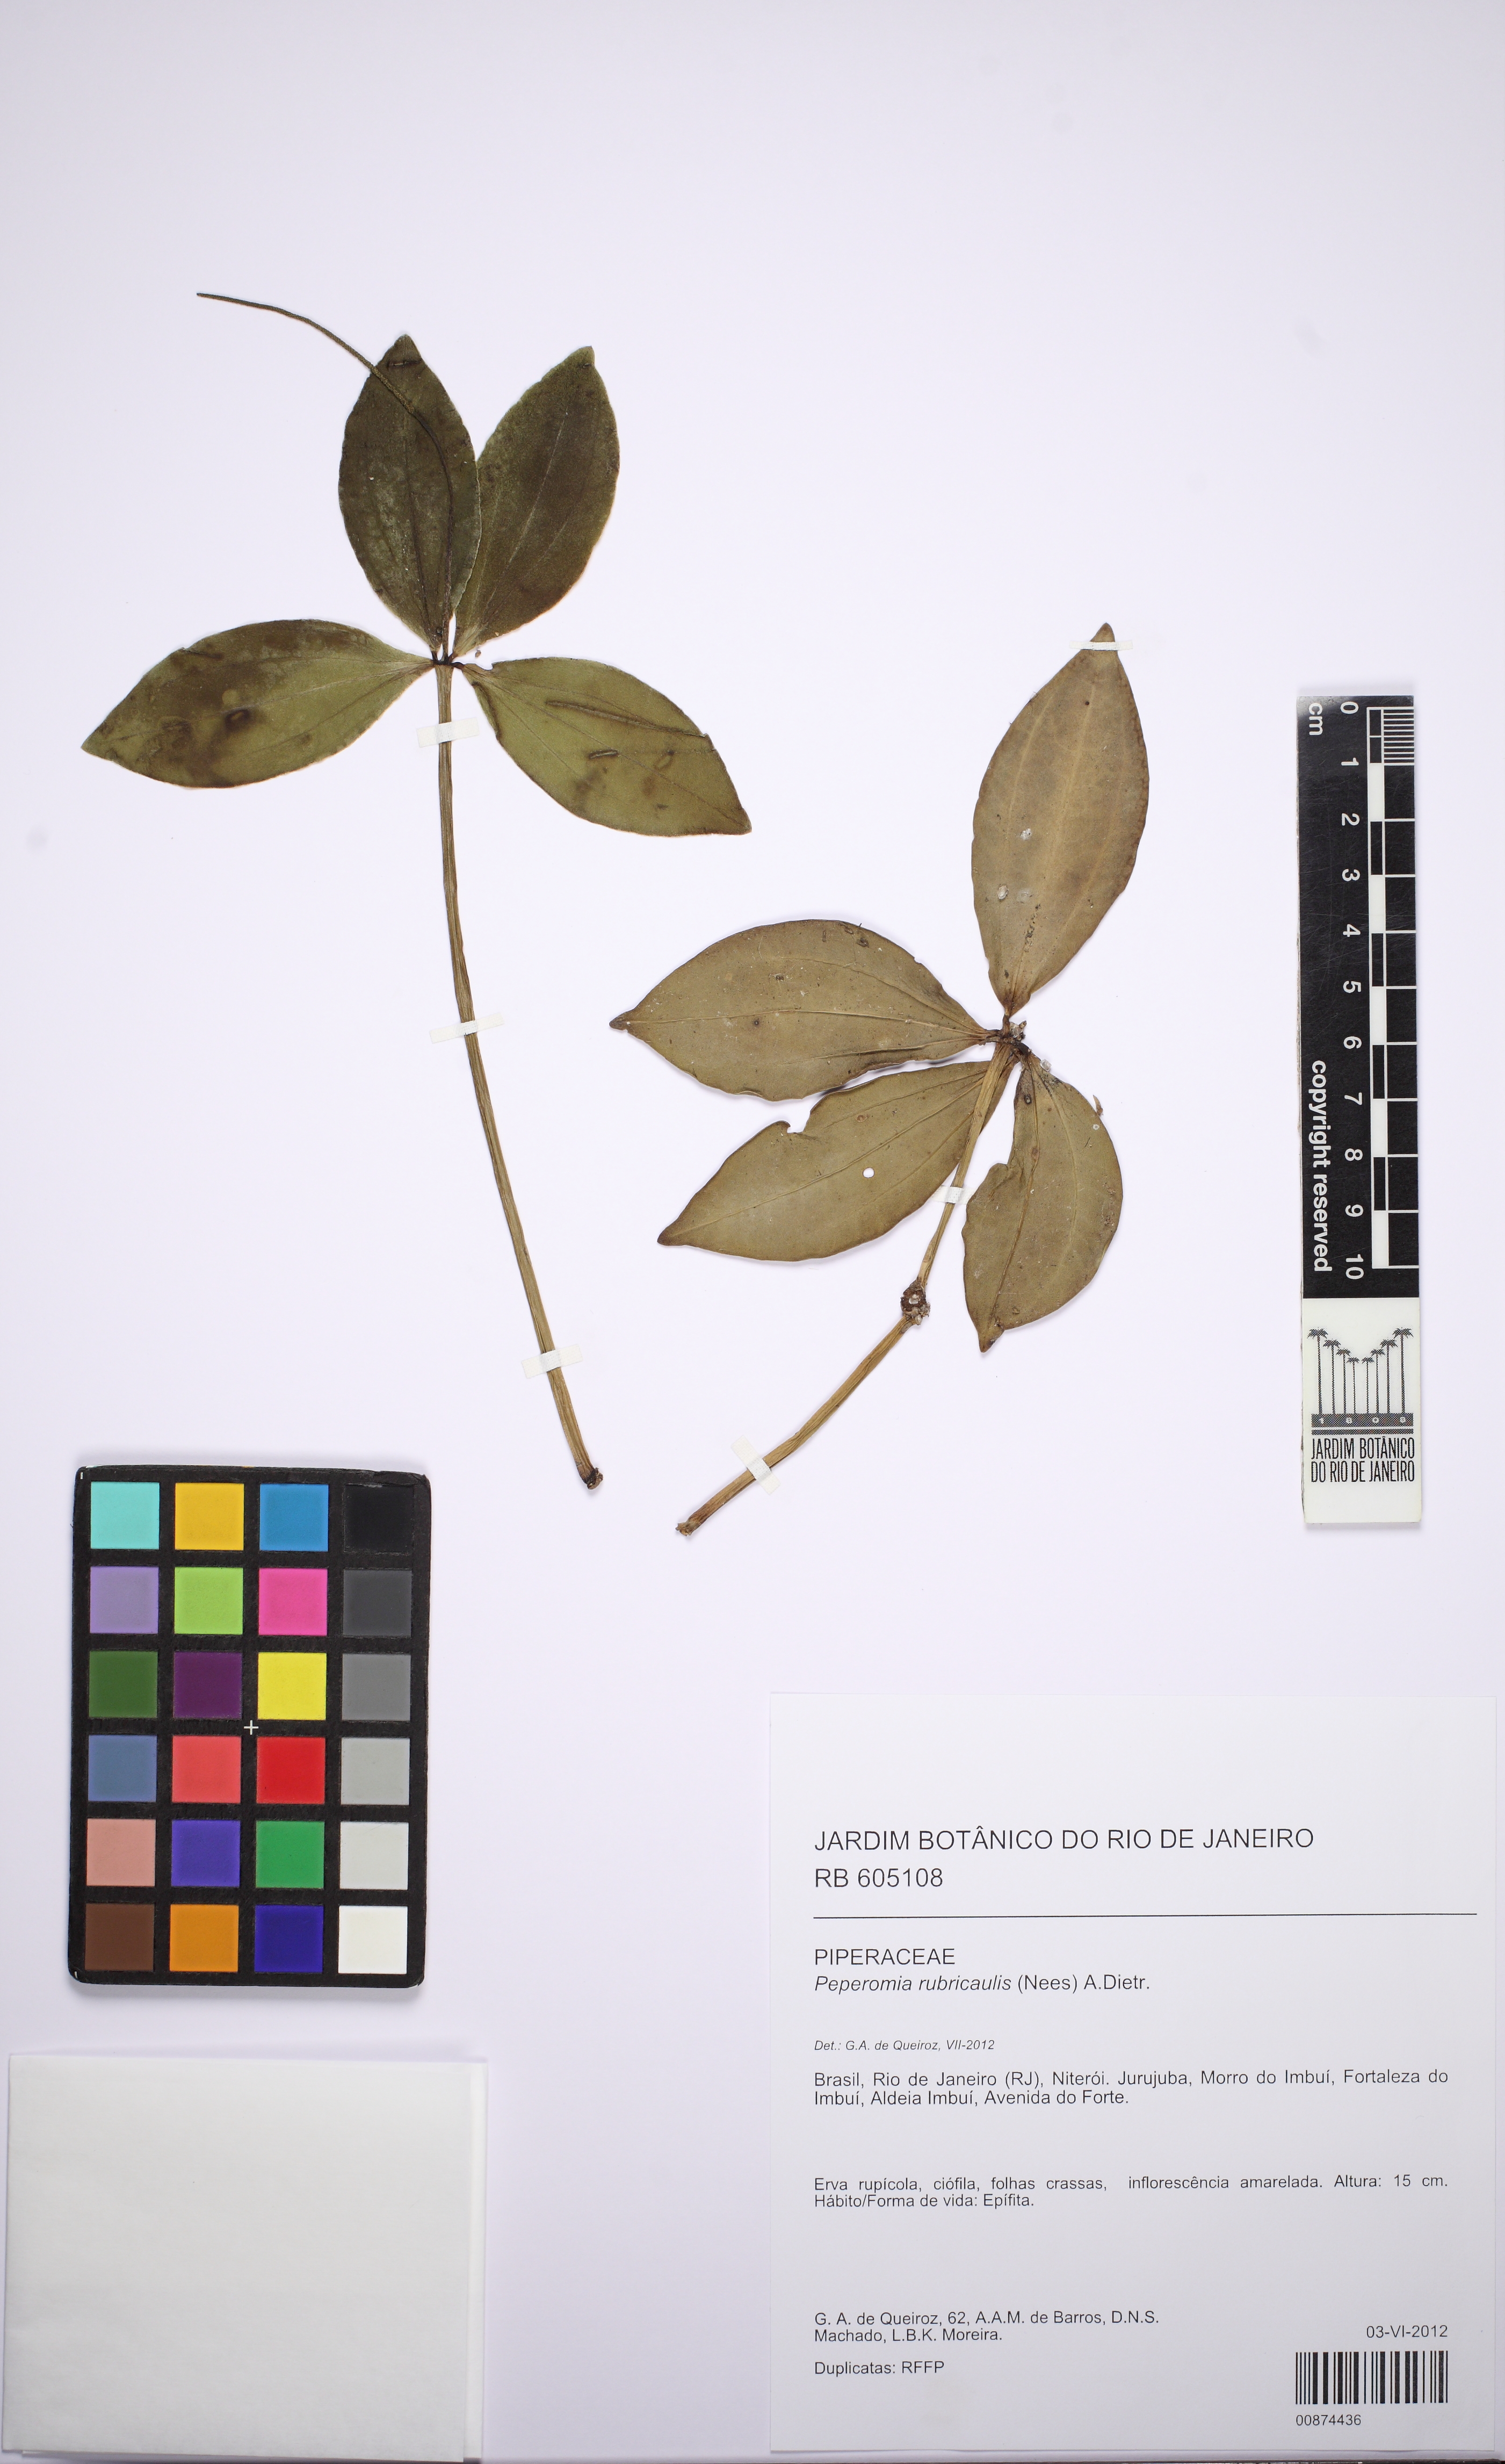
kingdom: Plantae
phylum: Tracheophyta
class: Magnoliopsida
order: Piperales
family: Piperaceae
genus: Peperomia
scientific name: Peperomia rubricaulis
